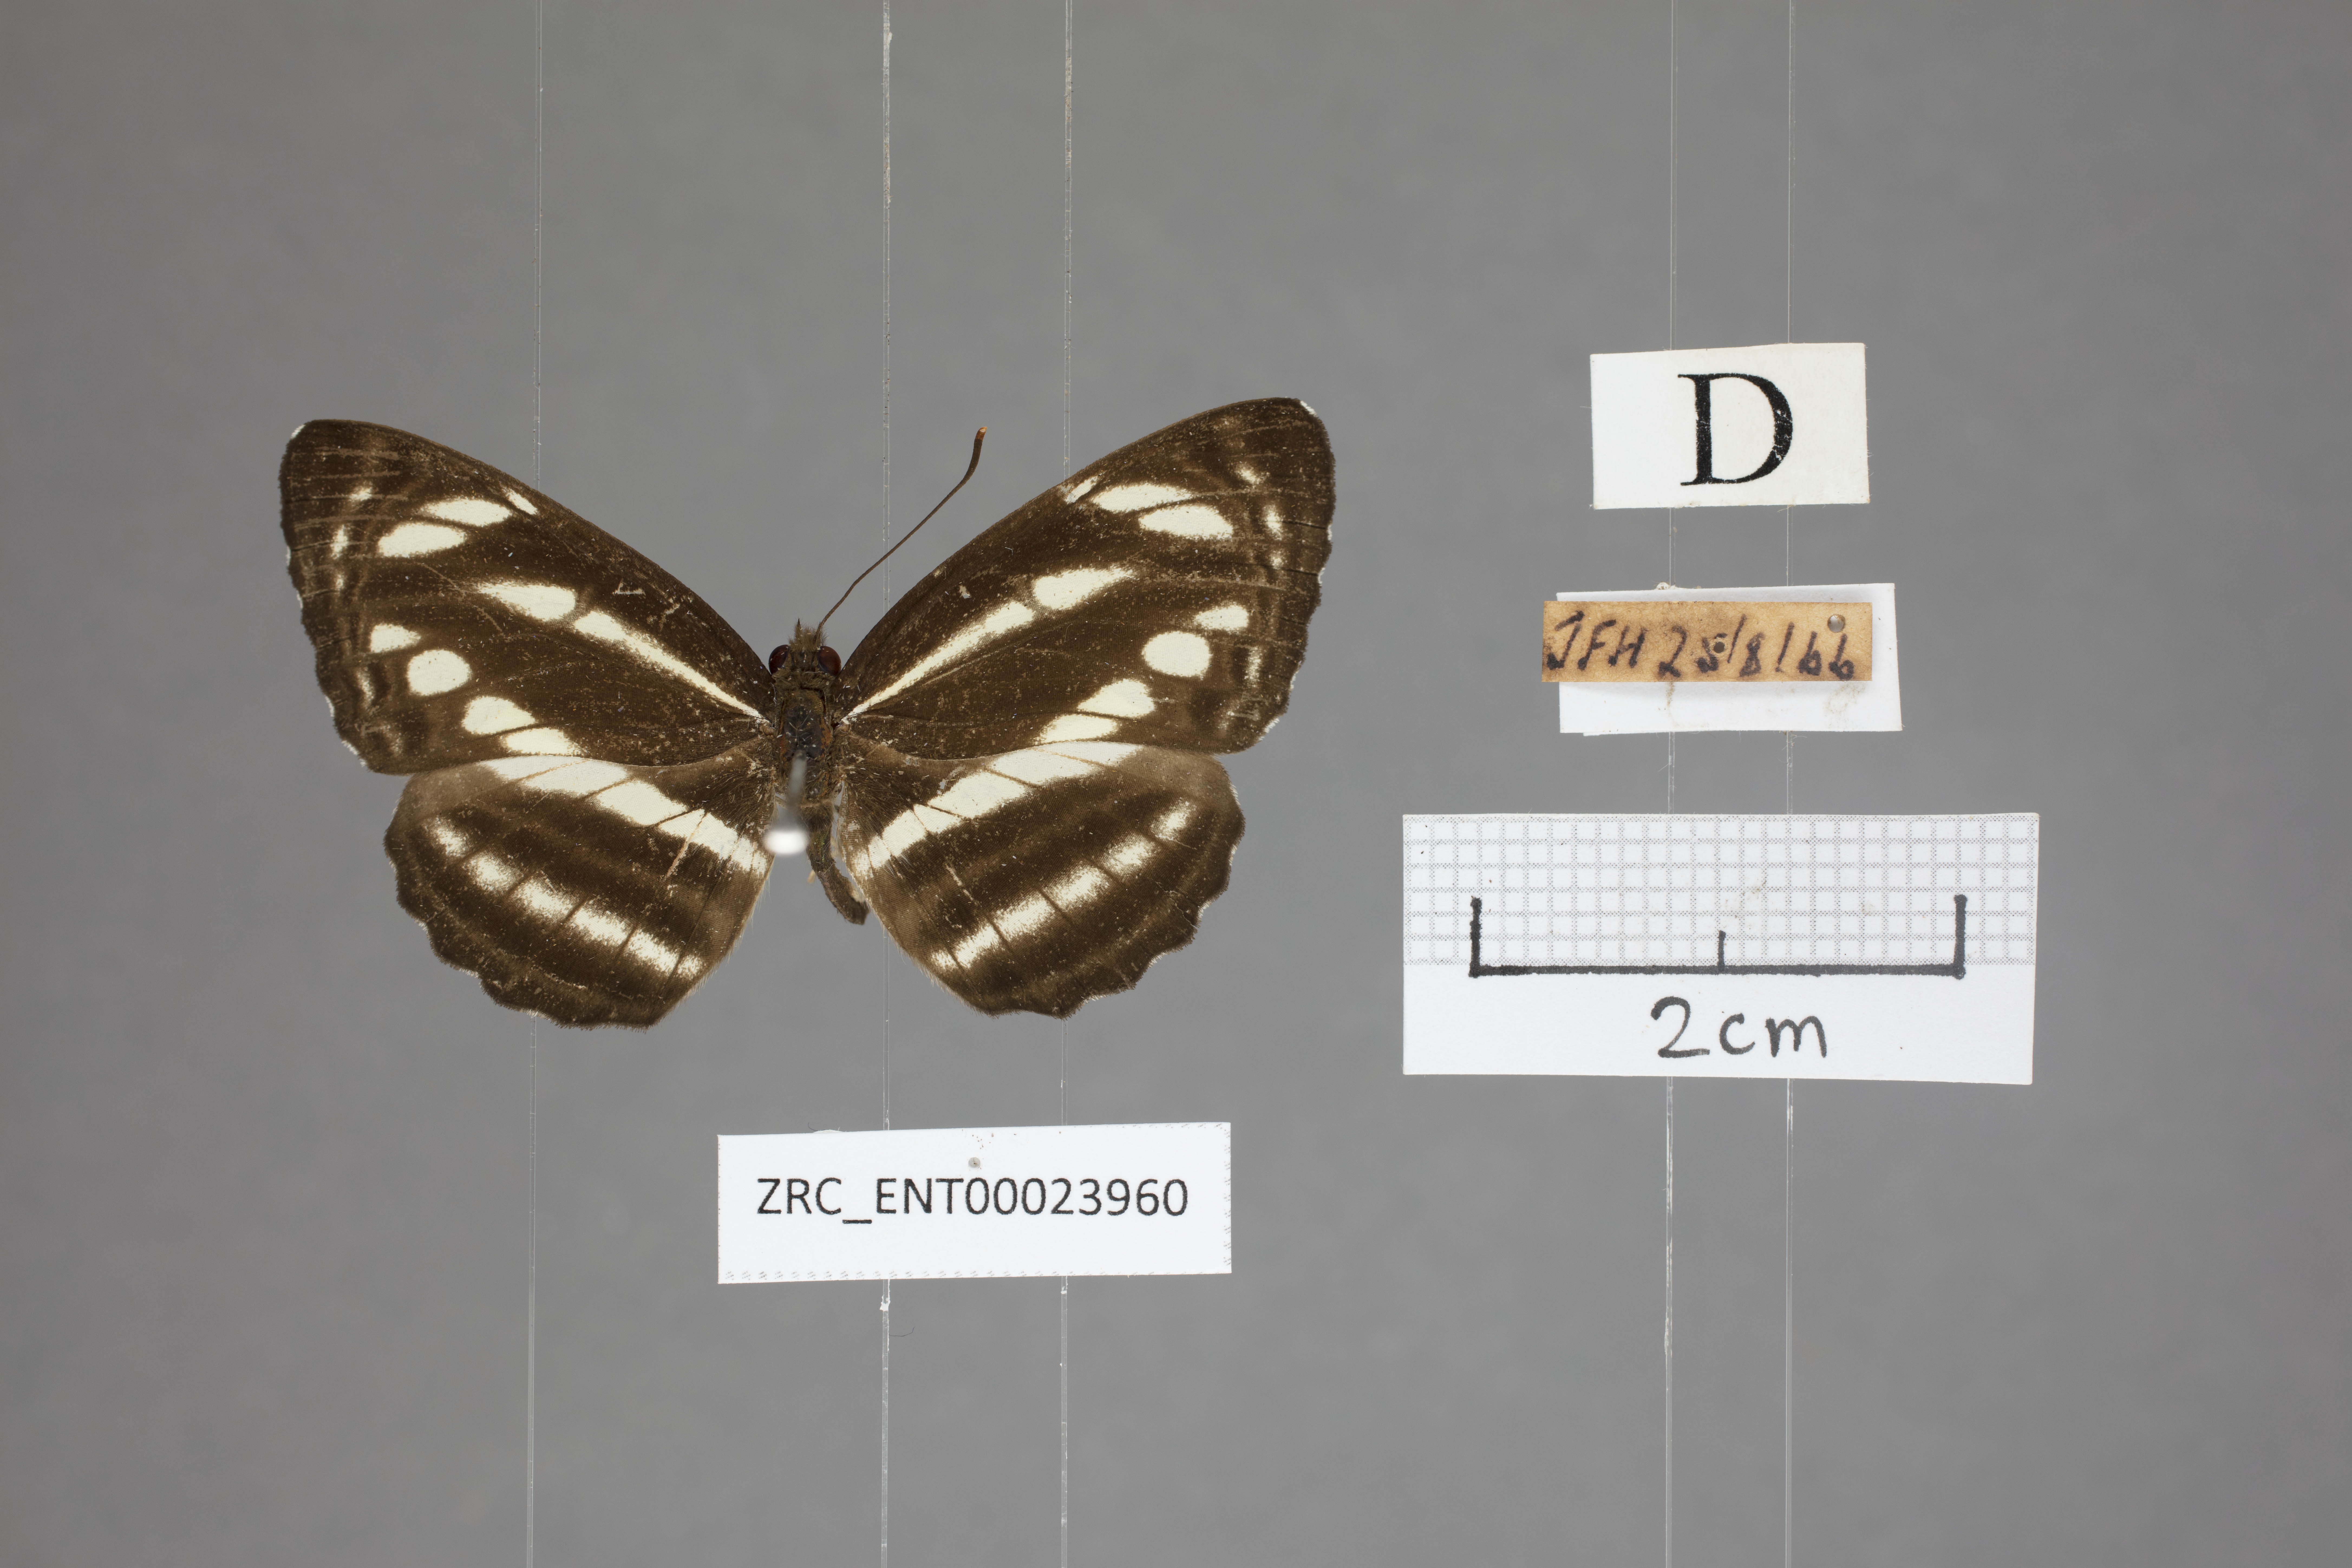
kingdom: Animalia
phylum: Arthropoda
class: Insecta
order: Lepidoptera
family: Nymphalidae
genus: Neptis
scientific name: Neptis clinioides
